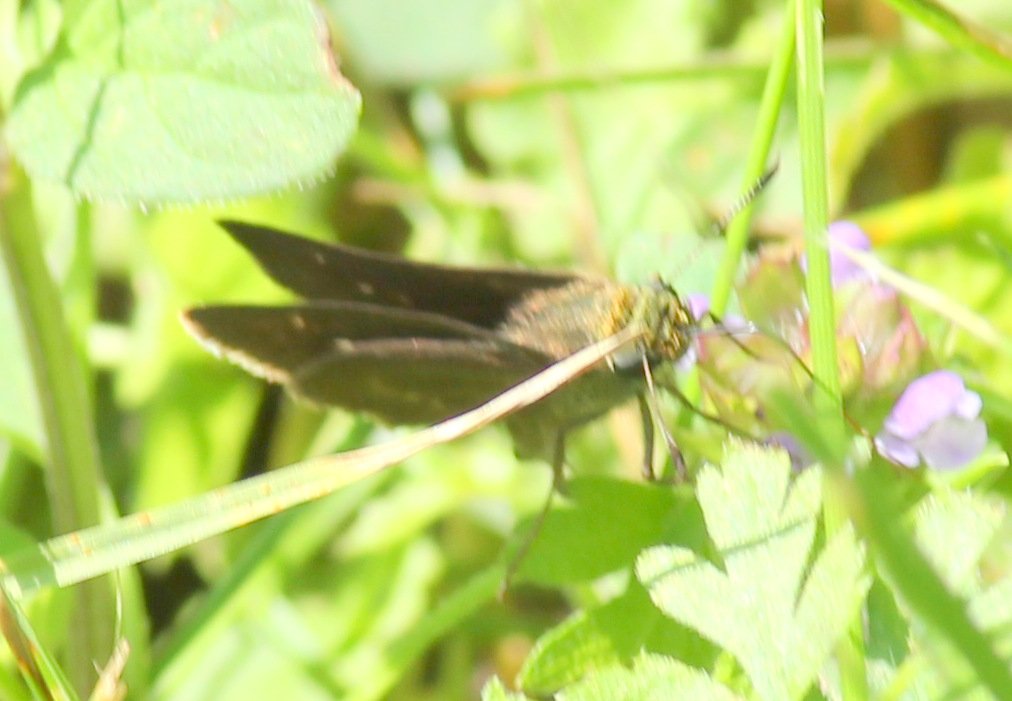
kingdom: Animalia
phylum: Arthropoda
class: Insecta
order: Lepidoptera
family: Hesperiidae
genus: Euphyes
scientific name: Euphyes vestris
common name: Dun Skipper
